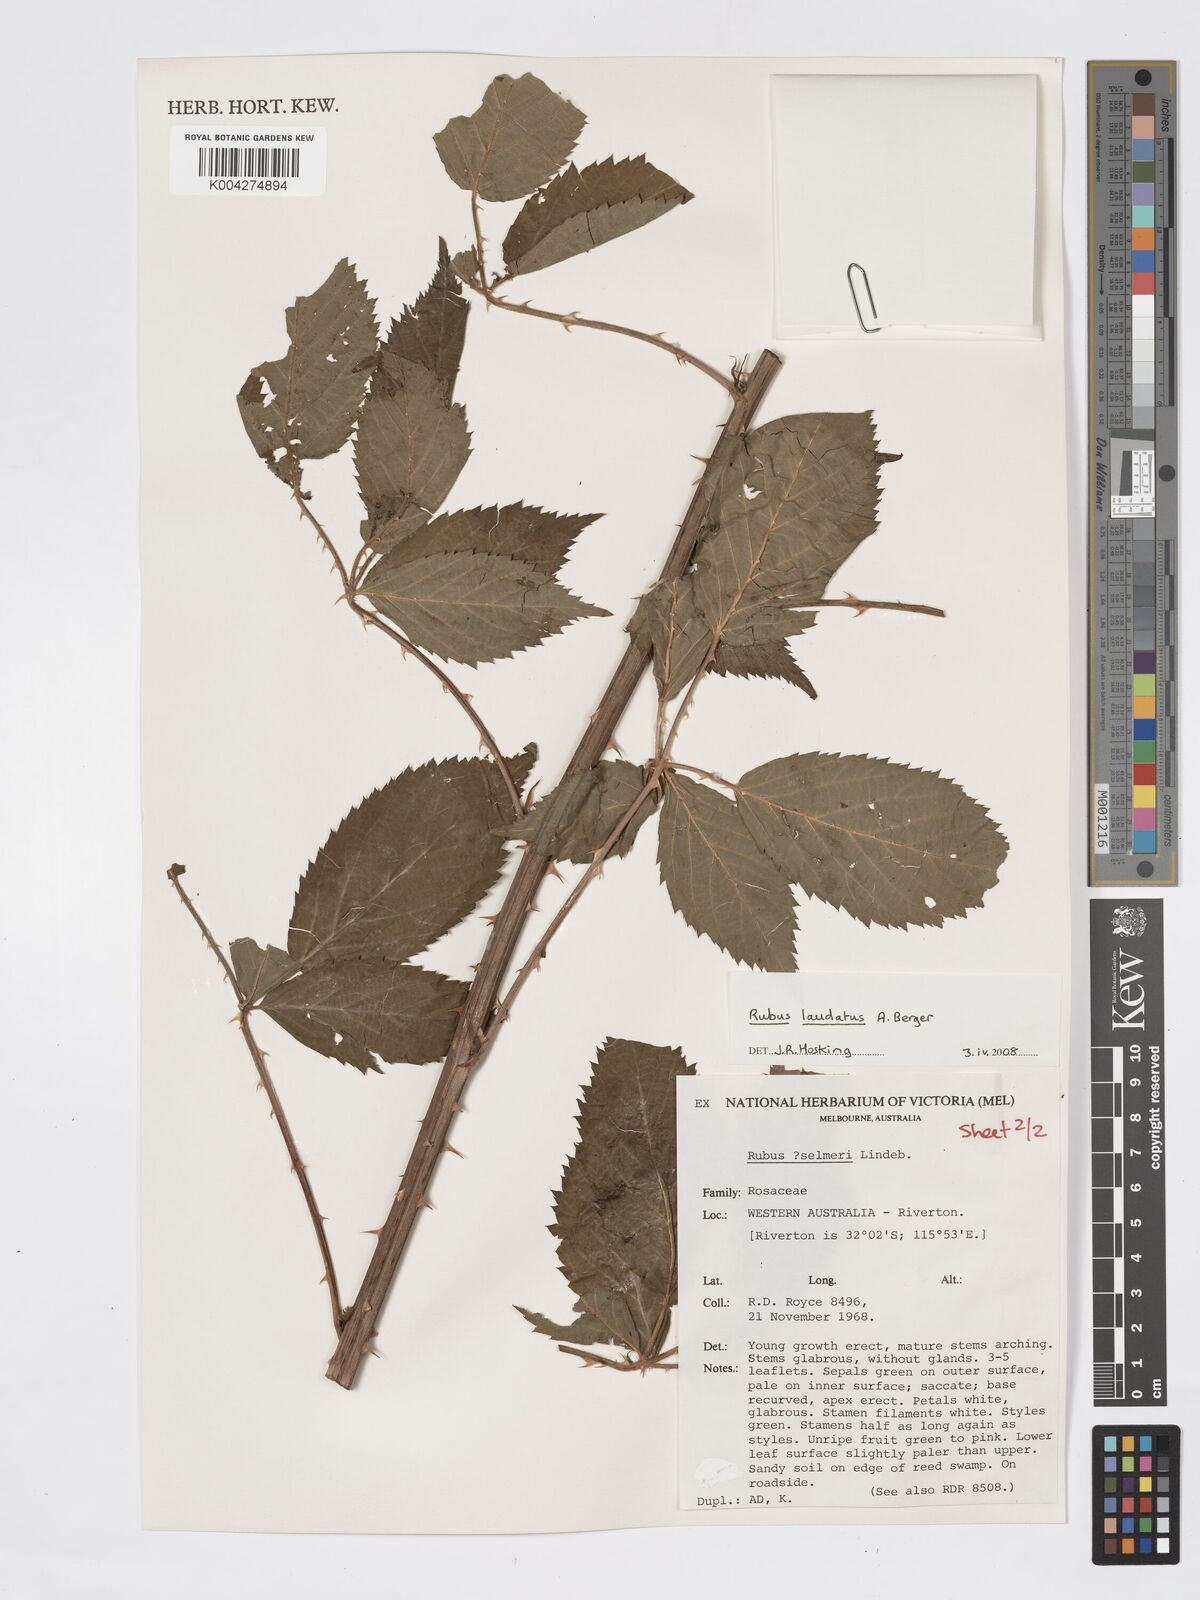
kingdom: Plantae
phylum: Tracheophyta
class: Magnoliopsida
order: Rosales
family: Rosaceae
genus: Rubus
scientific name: Rubus laudatus
